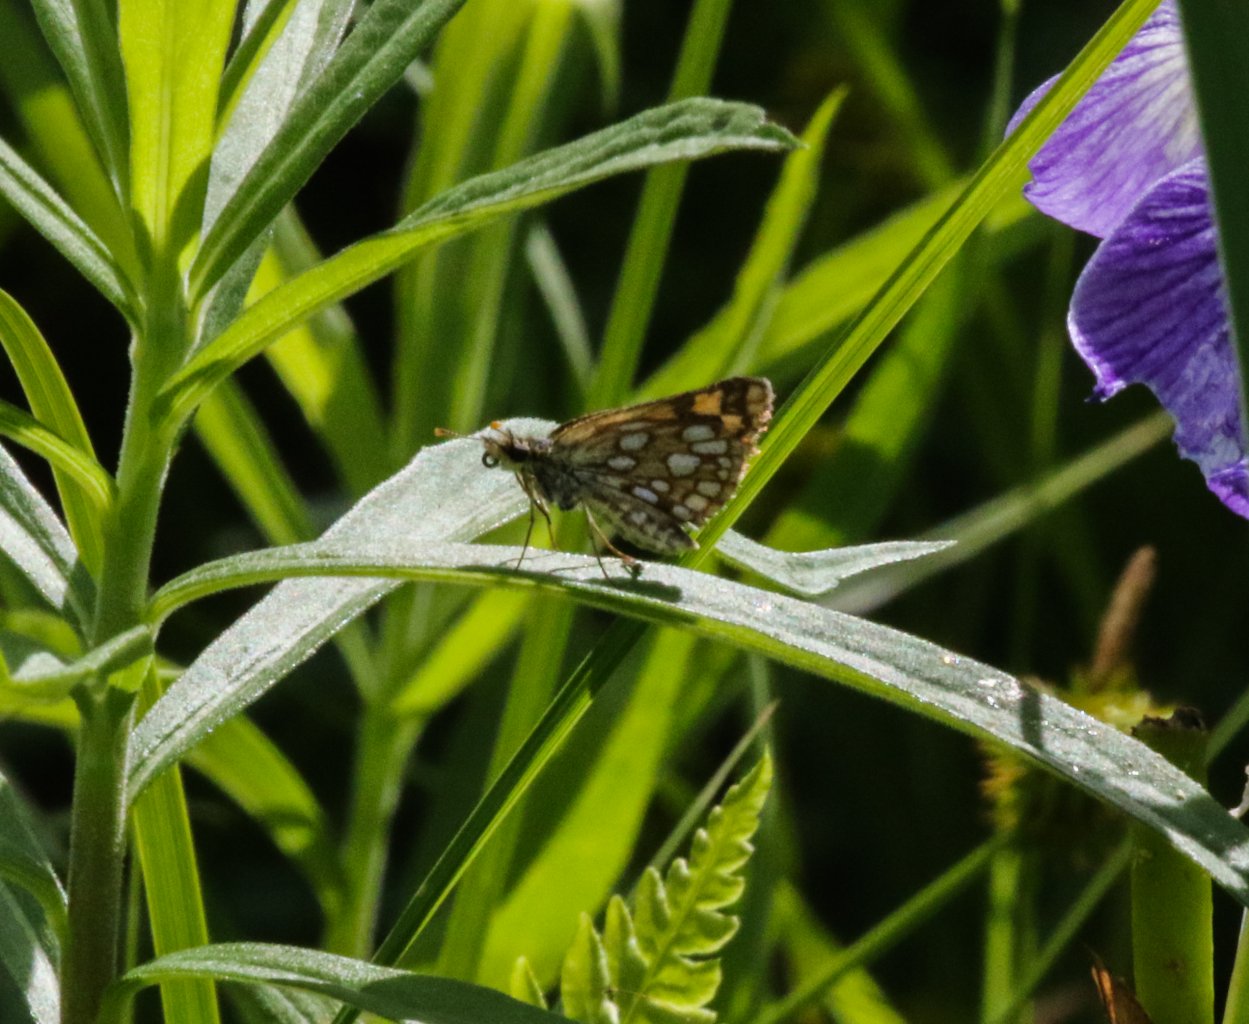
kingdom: Animalia
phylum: Arthropoda
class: Insecta
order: Lepidoptera
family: Hesperiidae
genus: Carterocephalus
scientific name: Carterocephalus palaemon
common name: Chequered Skipper
